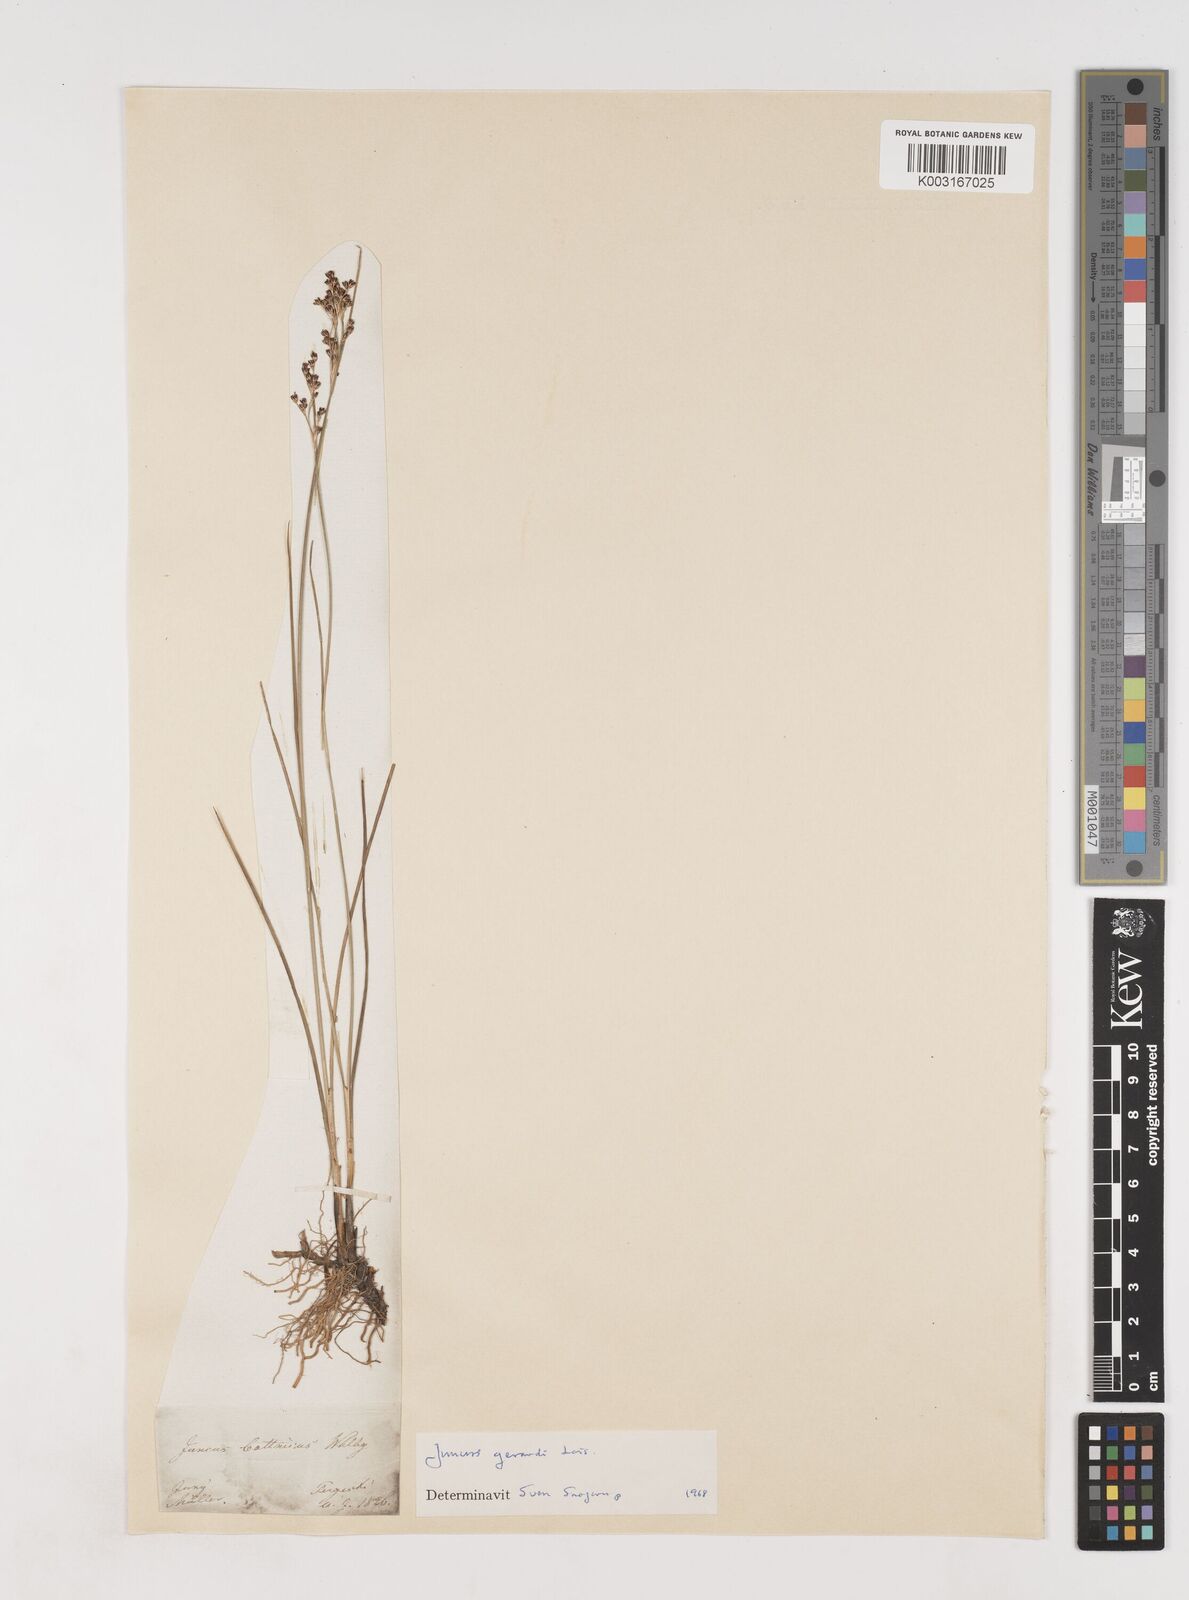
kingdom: Plantae
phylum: Tracheophyta
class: Liliopsida
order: Poales
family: Juncaceae
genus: Juncus
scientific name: Juncus gerardi
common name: Saltmarsh rush
